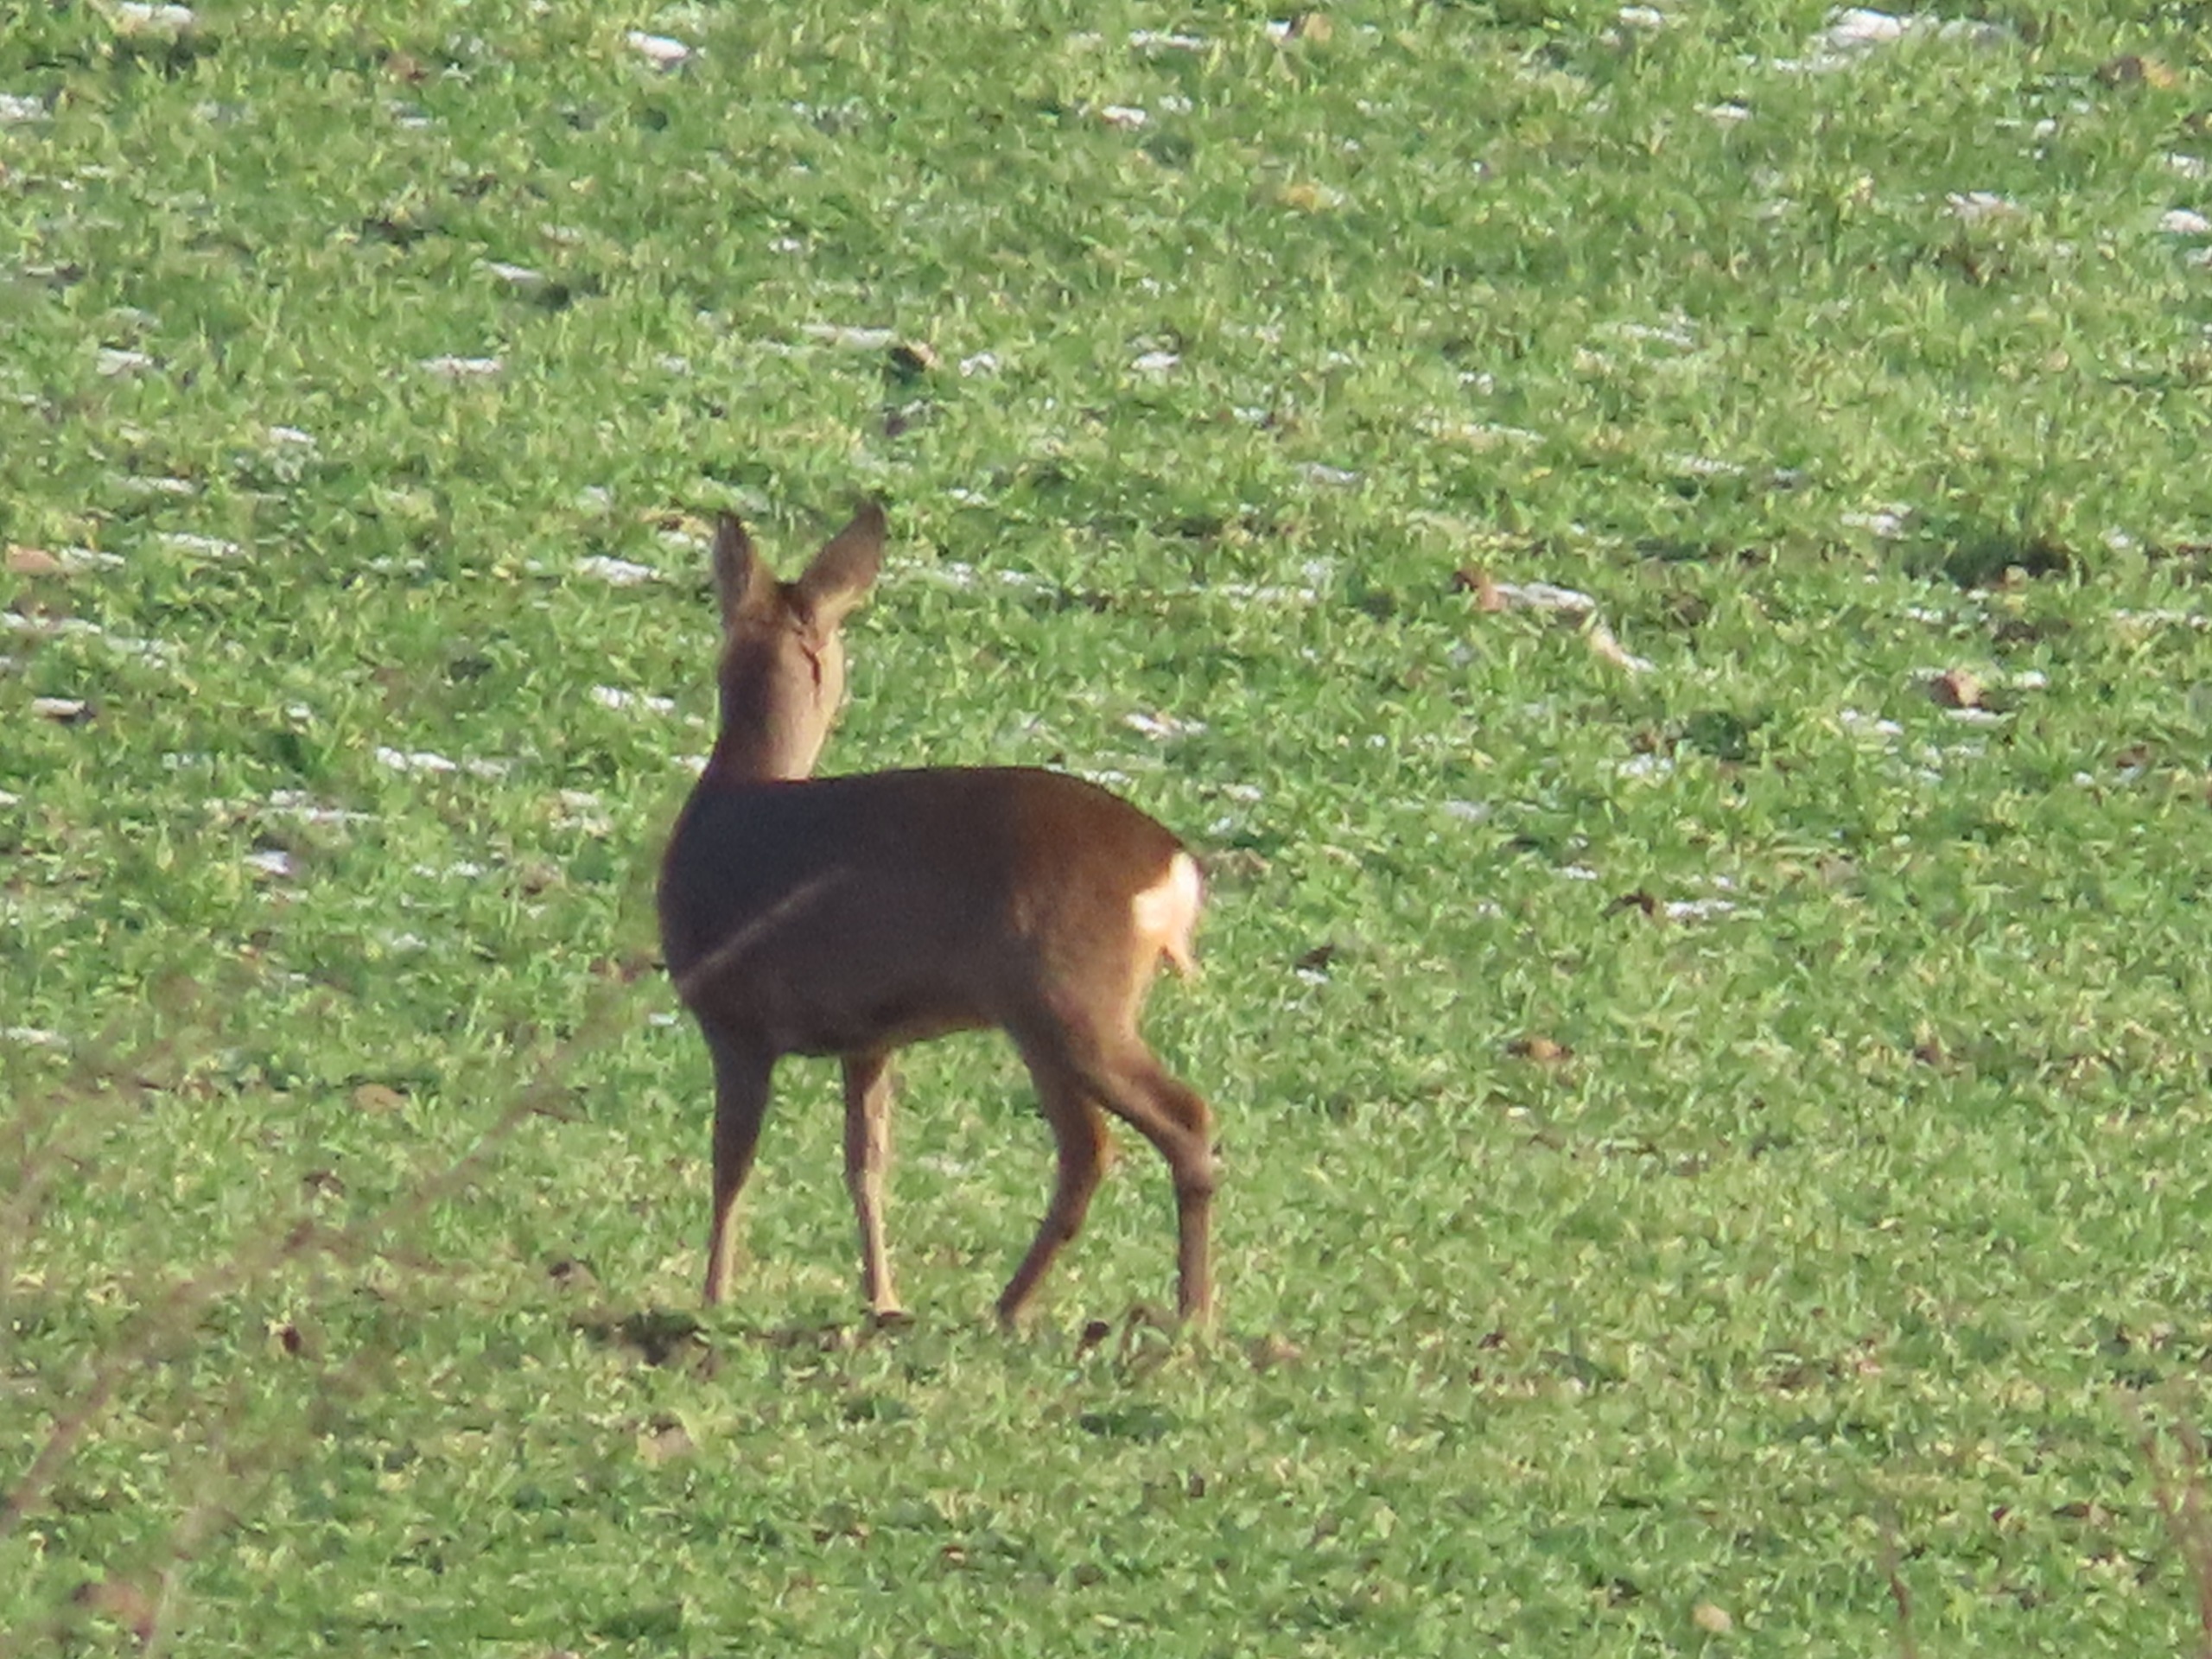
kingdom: Animalia
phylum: Chordata
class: Mammalia
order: Artiodactyla
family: Cervidae
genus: Capreolus
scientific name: Capreolus capreolus
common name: Rådyr
